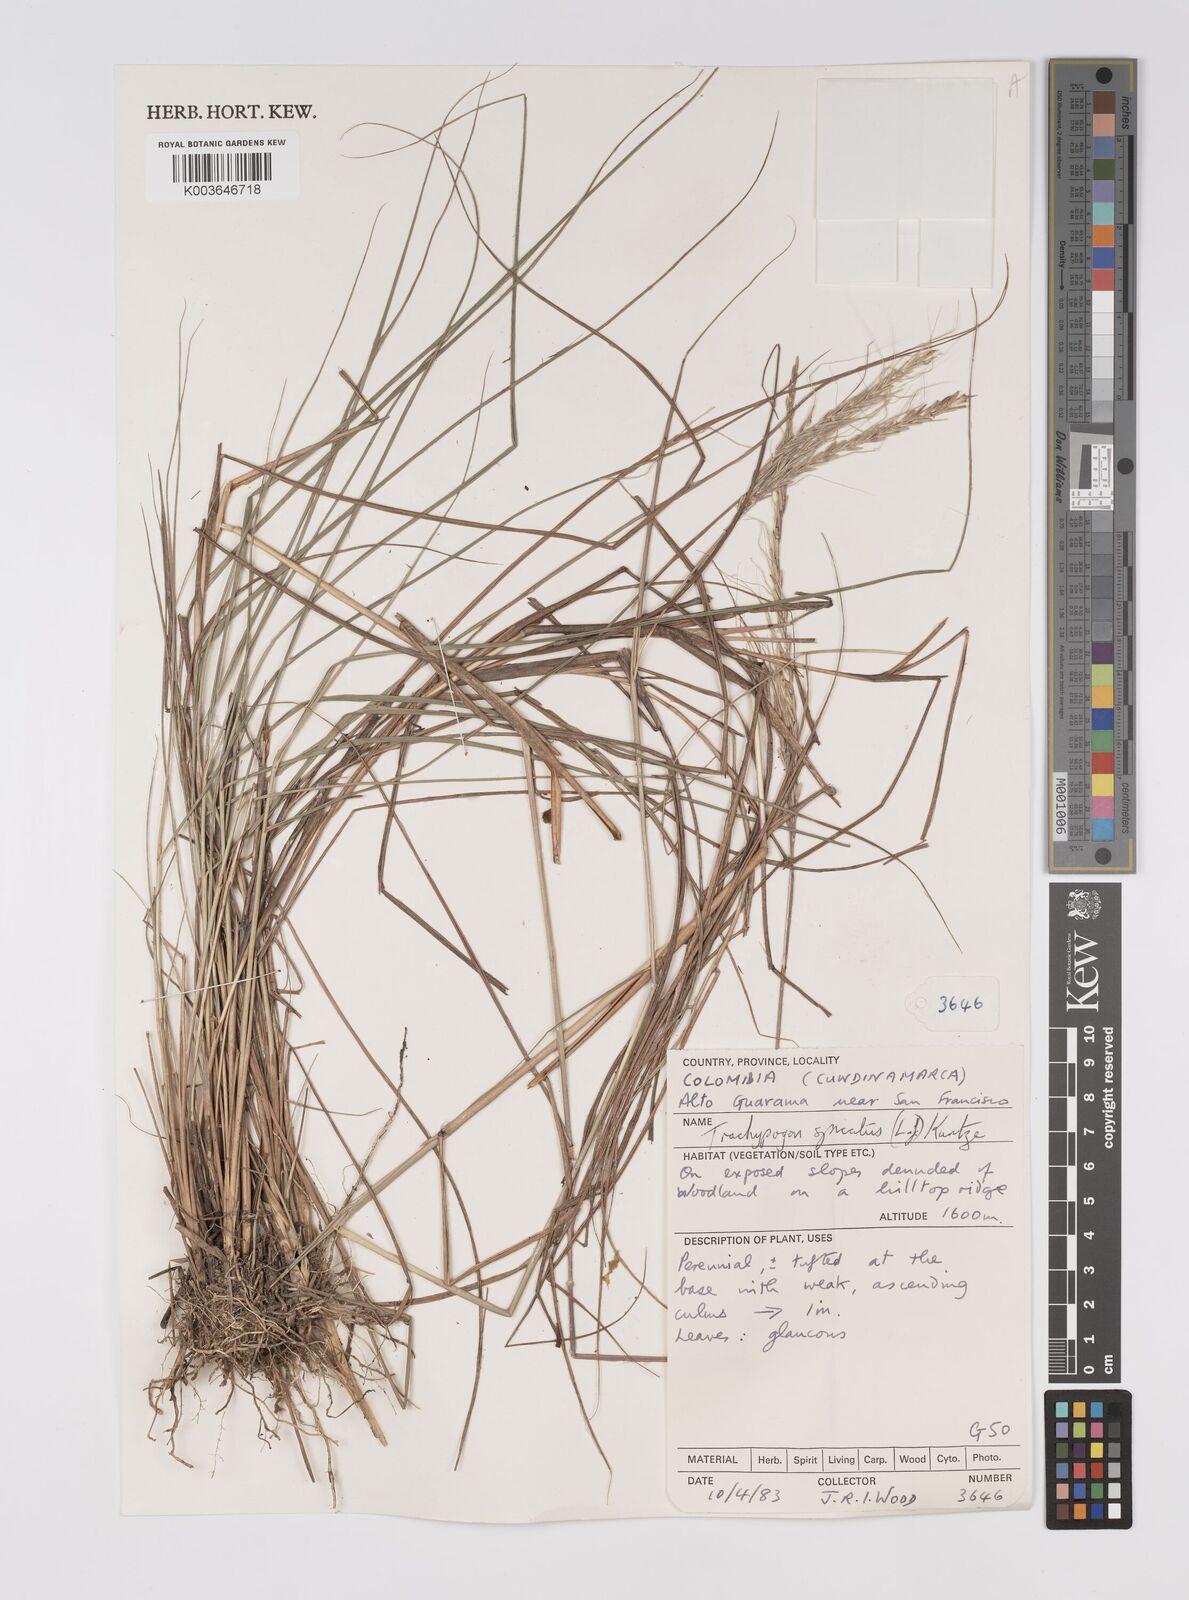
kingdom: Plantae
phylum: Tracheophyta
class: Liliopsida
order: Poales
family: Poaceae
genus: Trachypogon
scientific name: Trachypogon spicatus
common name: Crinkle-awn
